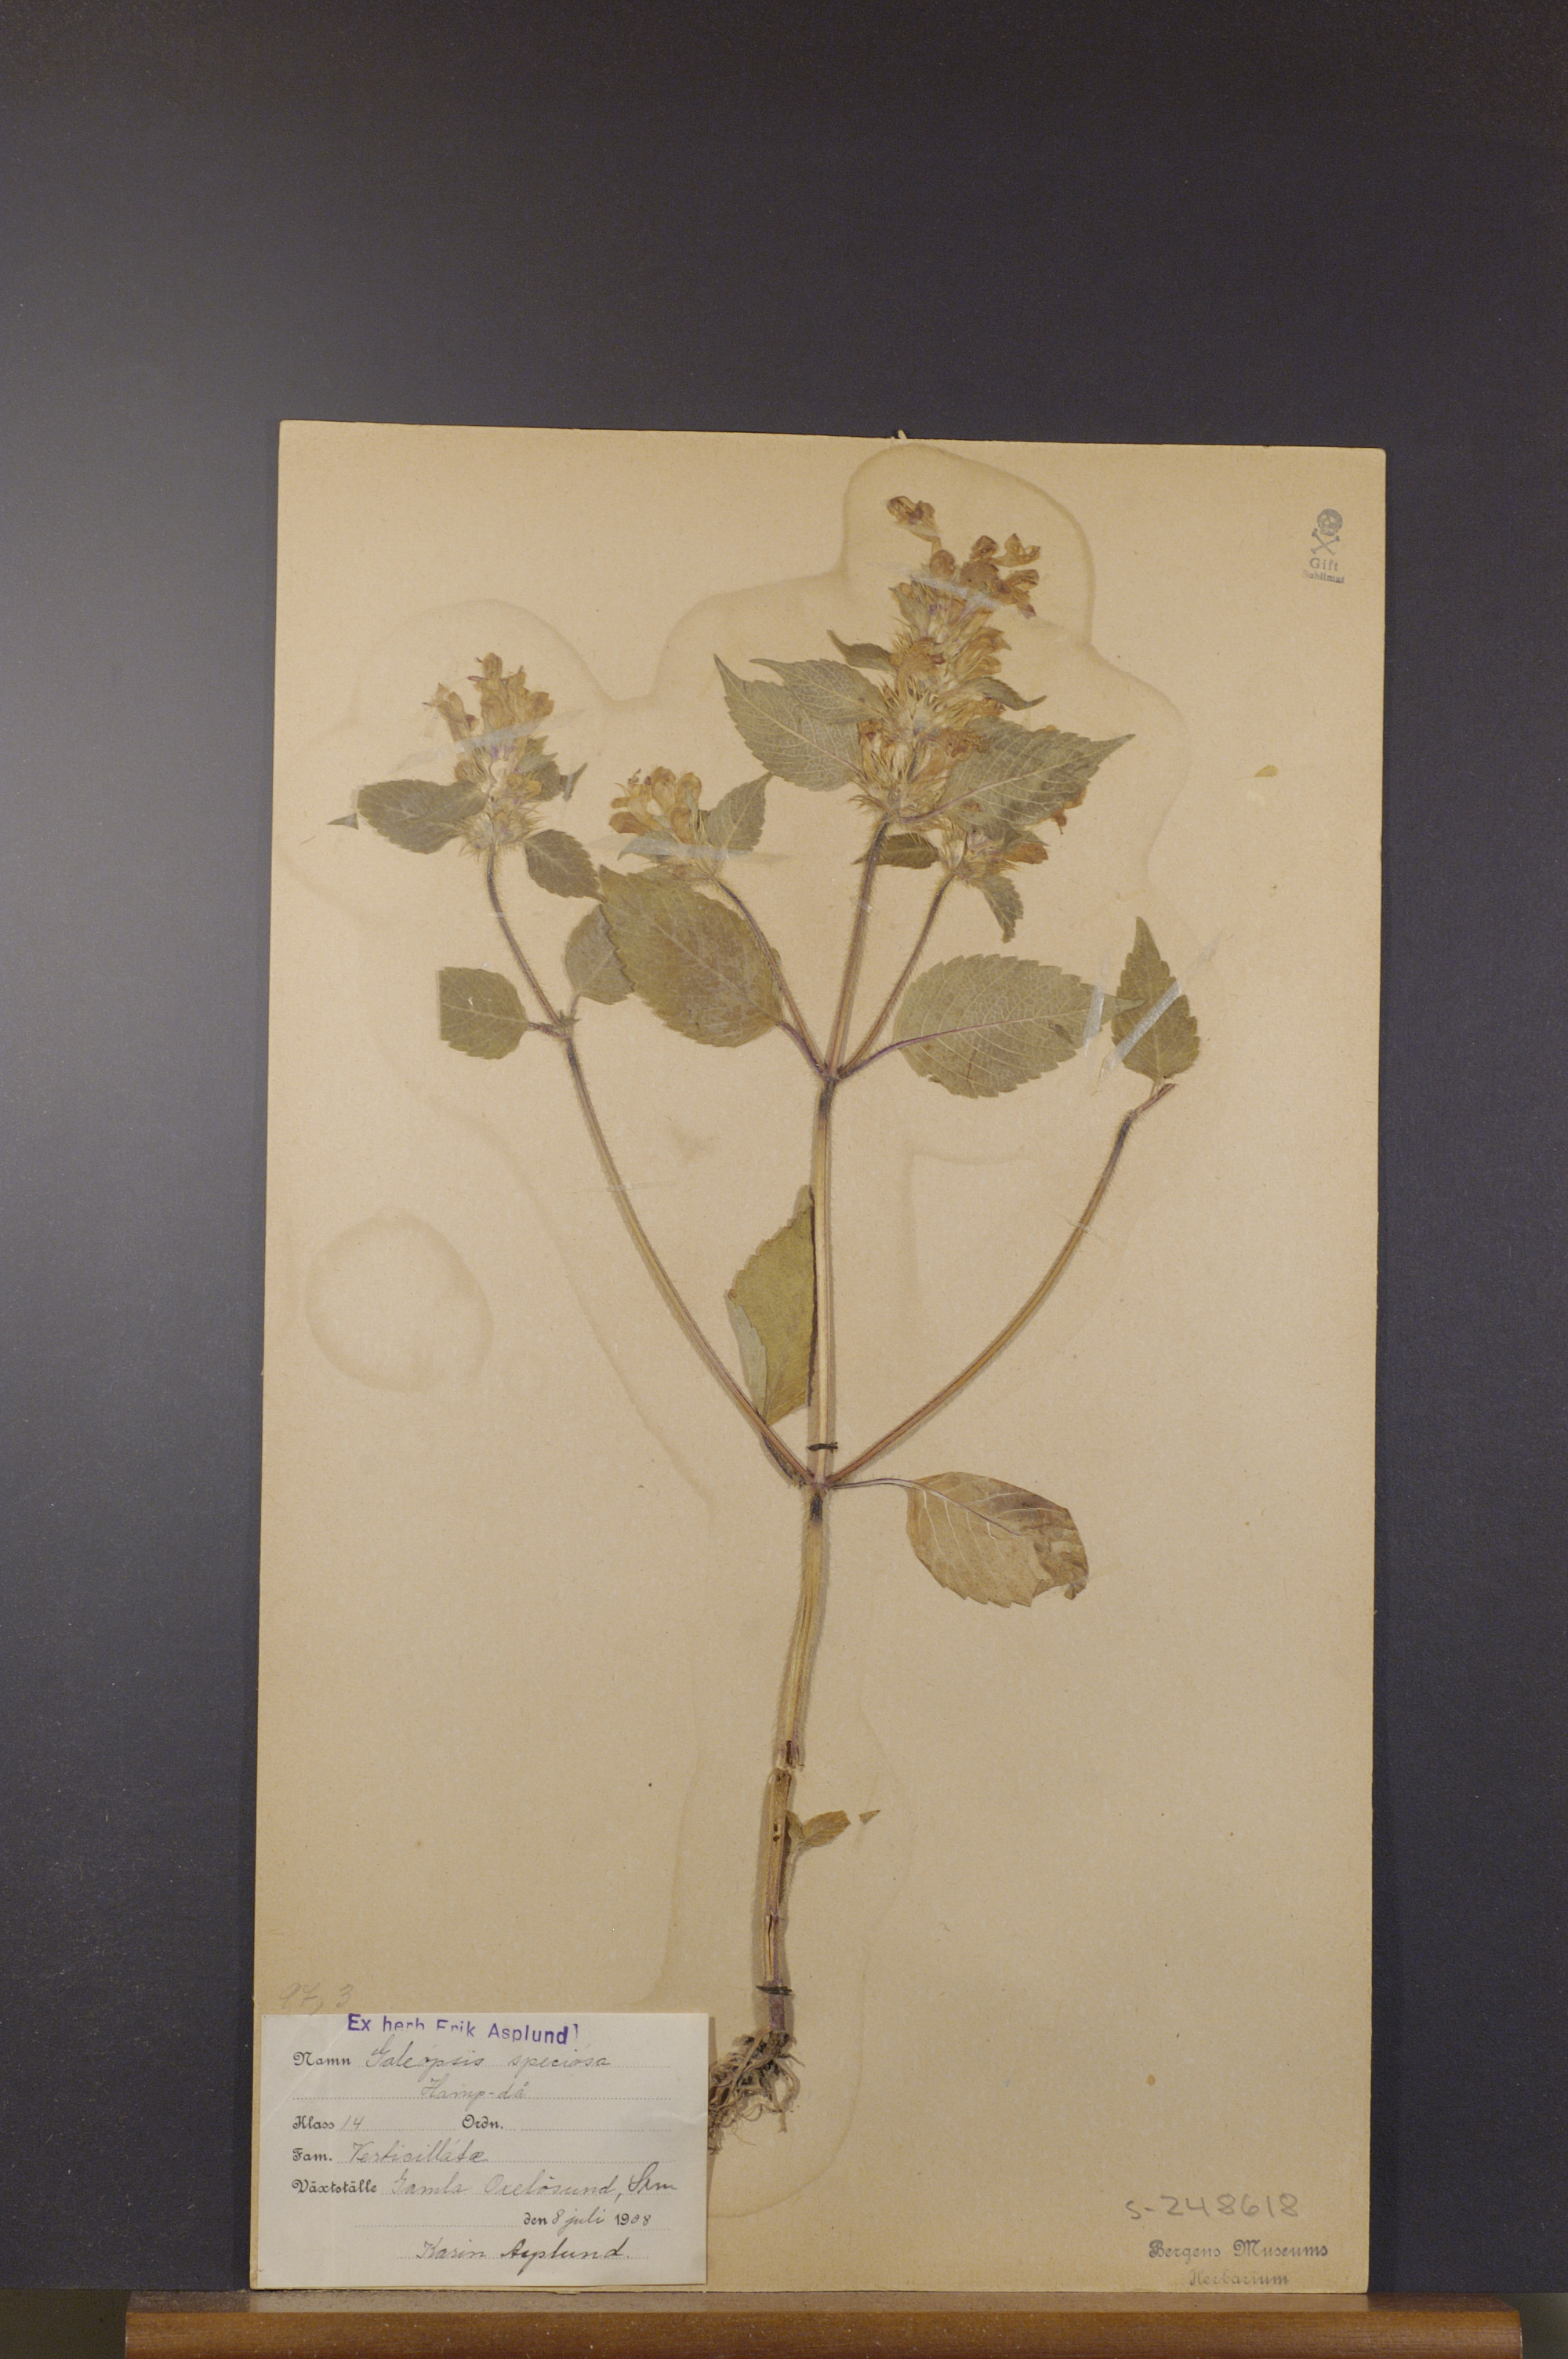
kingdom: Plantae
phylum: Tracheophyta
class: Magnoliopsida
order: Lamiales
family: Lamiaceae
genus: Galeopsis
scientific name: Galeopsis speciosa
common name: Large-flowered hemp-nettle
